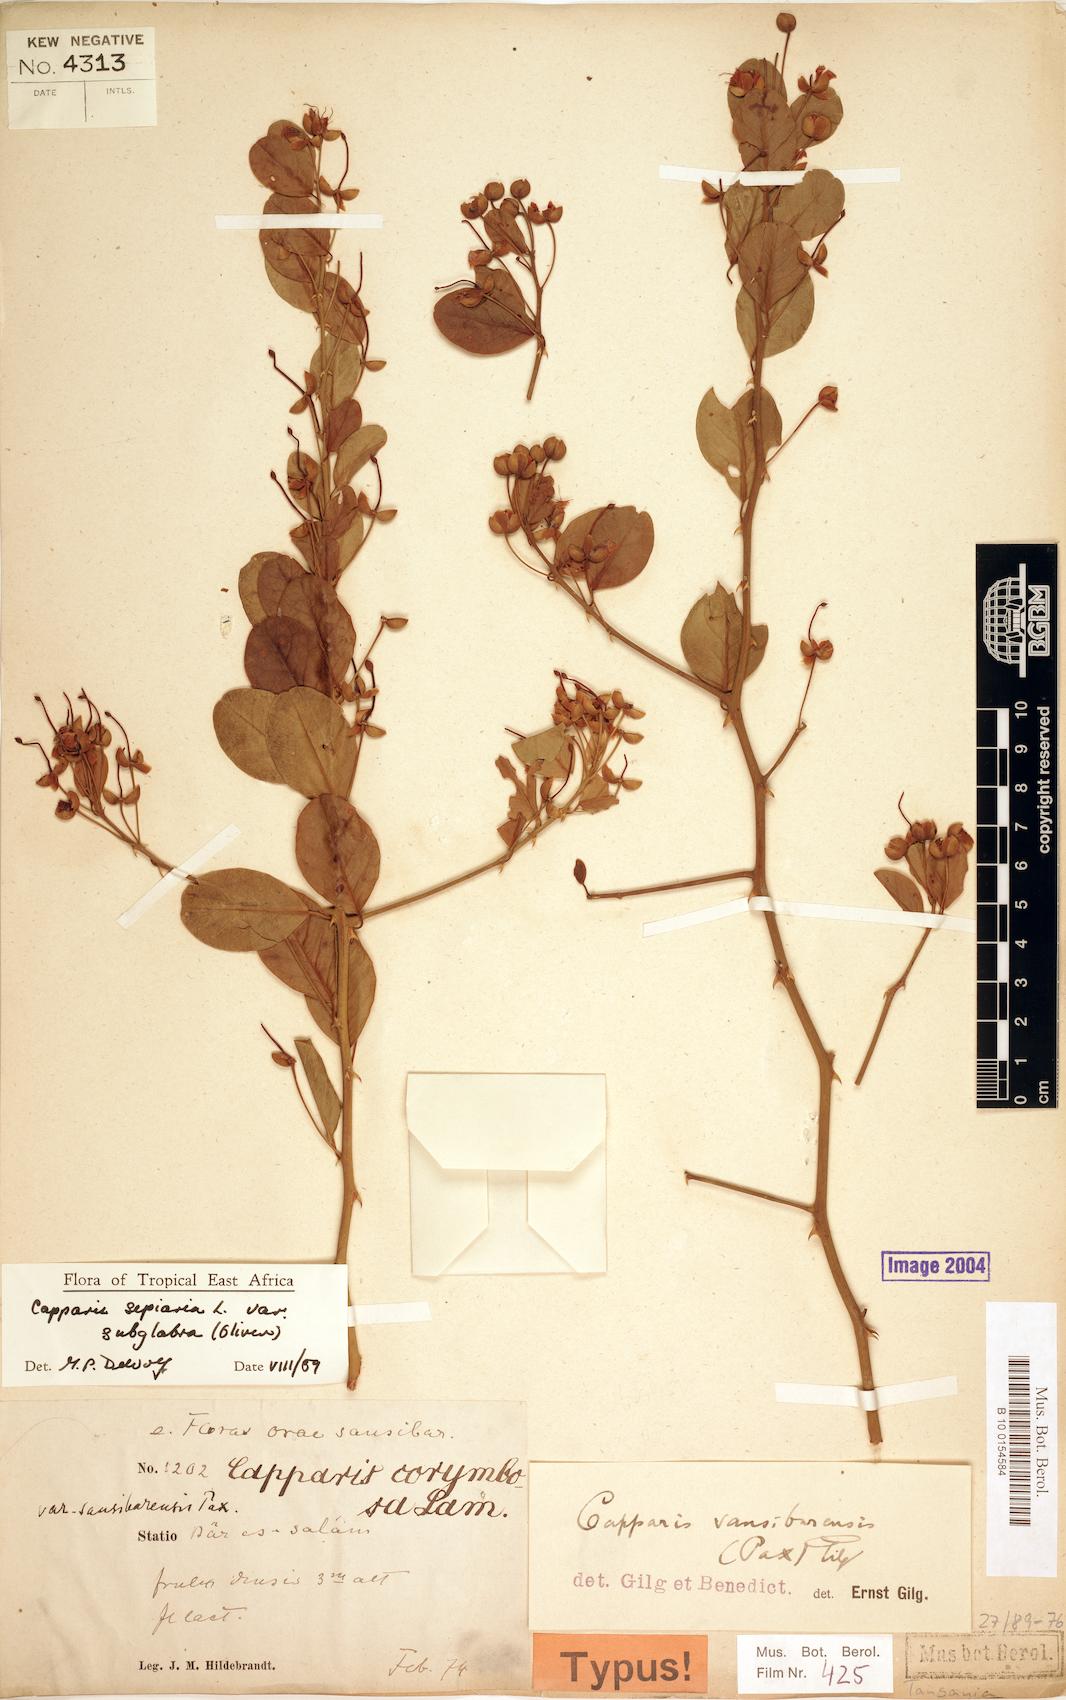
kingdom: Plantae
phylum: Tracheophyta
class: Magnoliopsida
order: Brassicales
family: Capparaceae
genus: Capparis
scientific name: Capparis sepiaria
